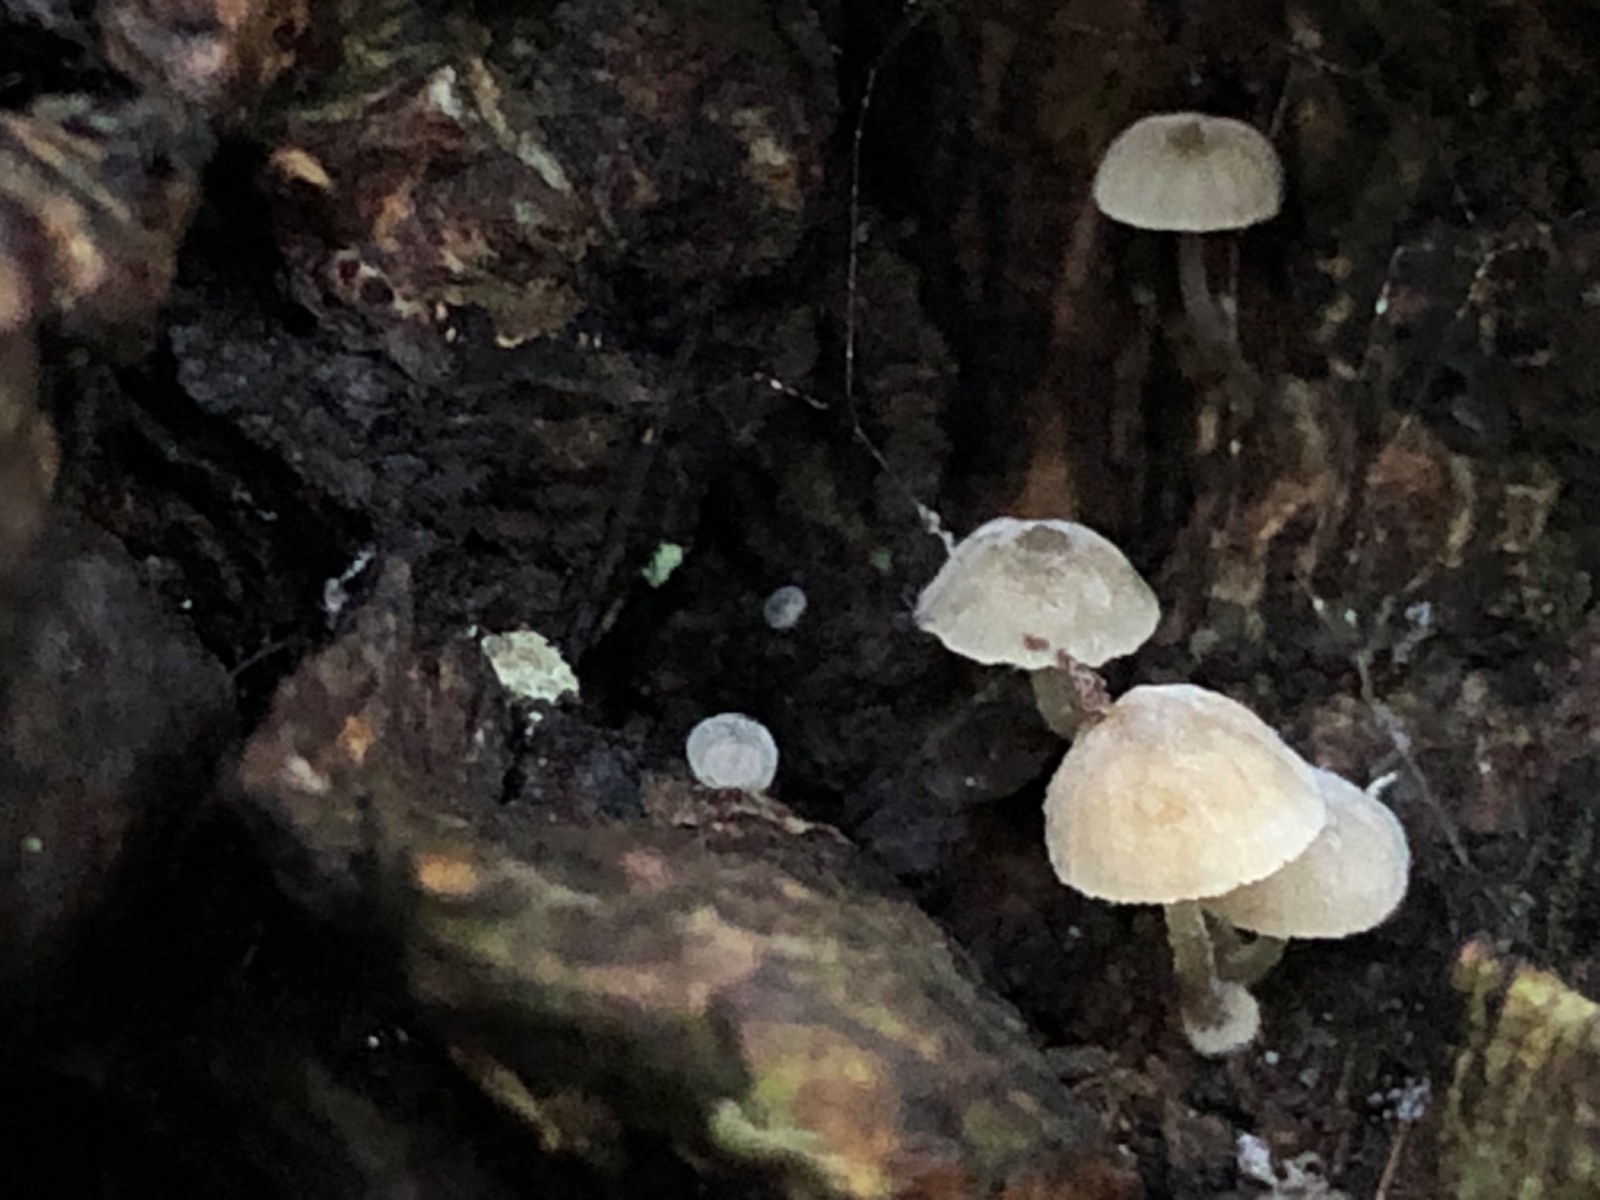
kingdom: Fungi
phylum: Basidiomycota
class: Agaricomycetes
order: Agaricales
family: Mycenaceae
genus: Mycena
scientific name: Mycena clavularis
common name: dunskivet huesvamp
